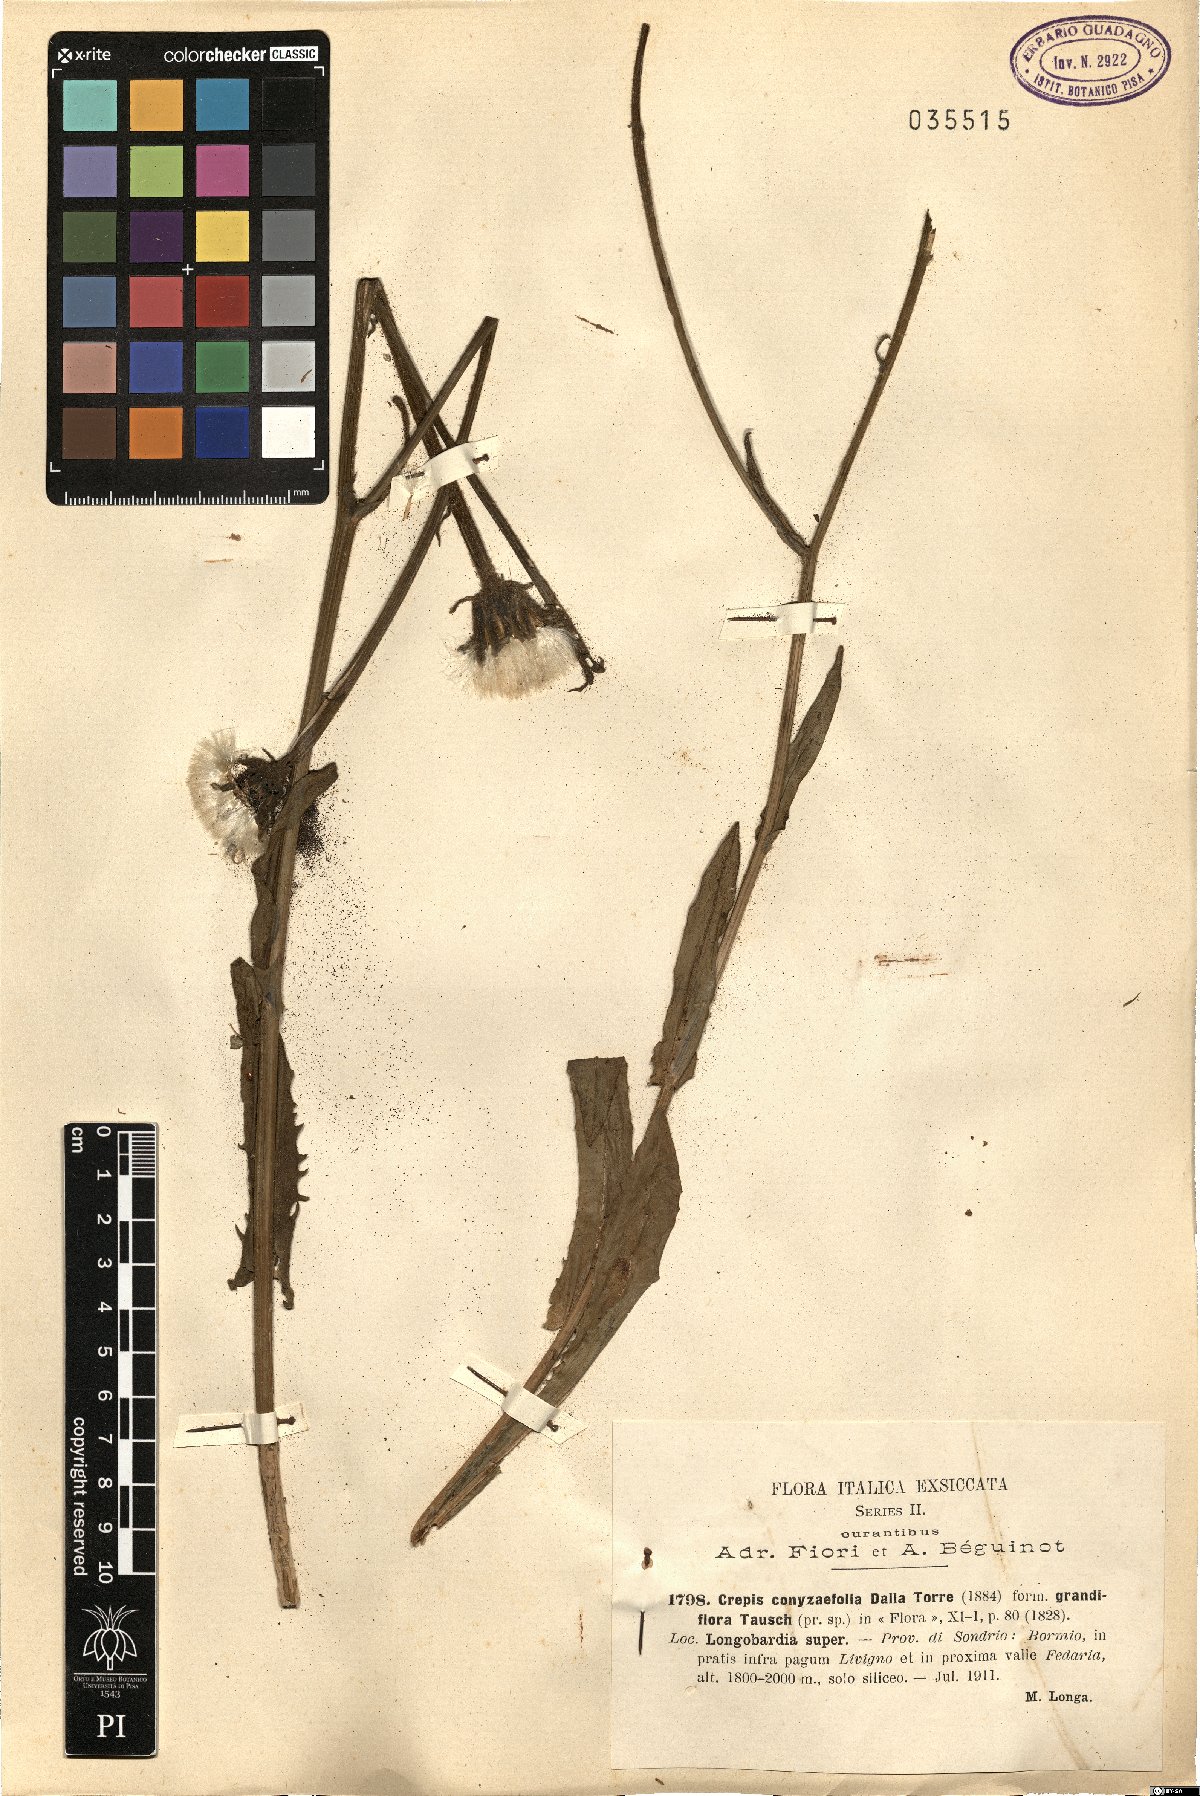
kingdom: Plantae
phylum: Tracheophyta
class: Magnoliopsida
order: Asterales
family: Asteraceae
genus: Crepis
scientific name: Crepis conyzifolia
